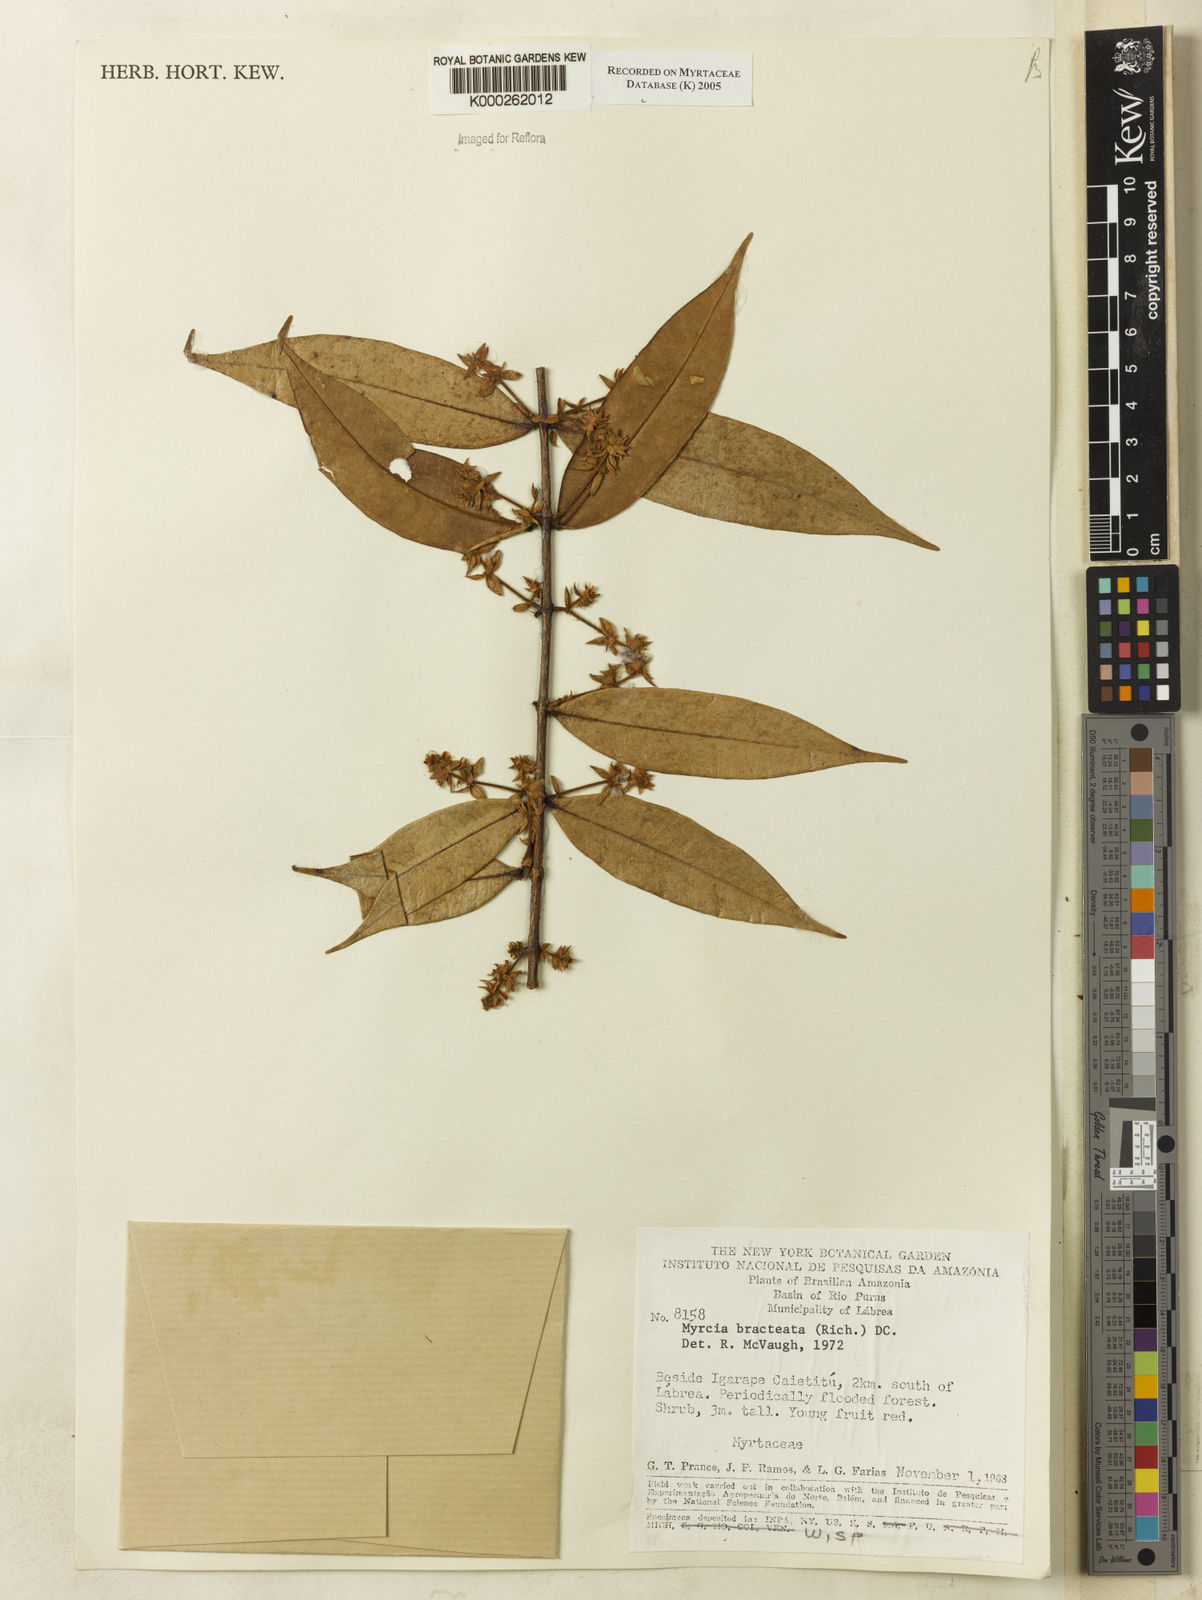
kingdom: Plantae
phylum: Tracheophyta
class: Magnoliopsida
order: Myrtales
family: Myrtaceae
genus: Myrcia
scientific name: Myrcia bracteata
